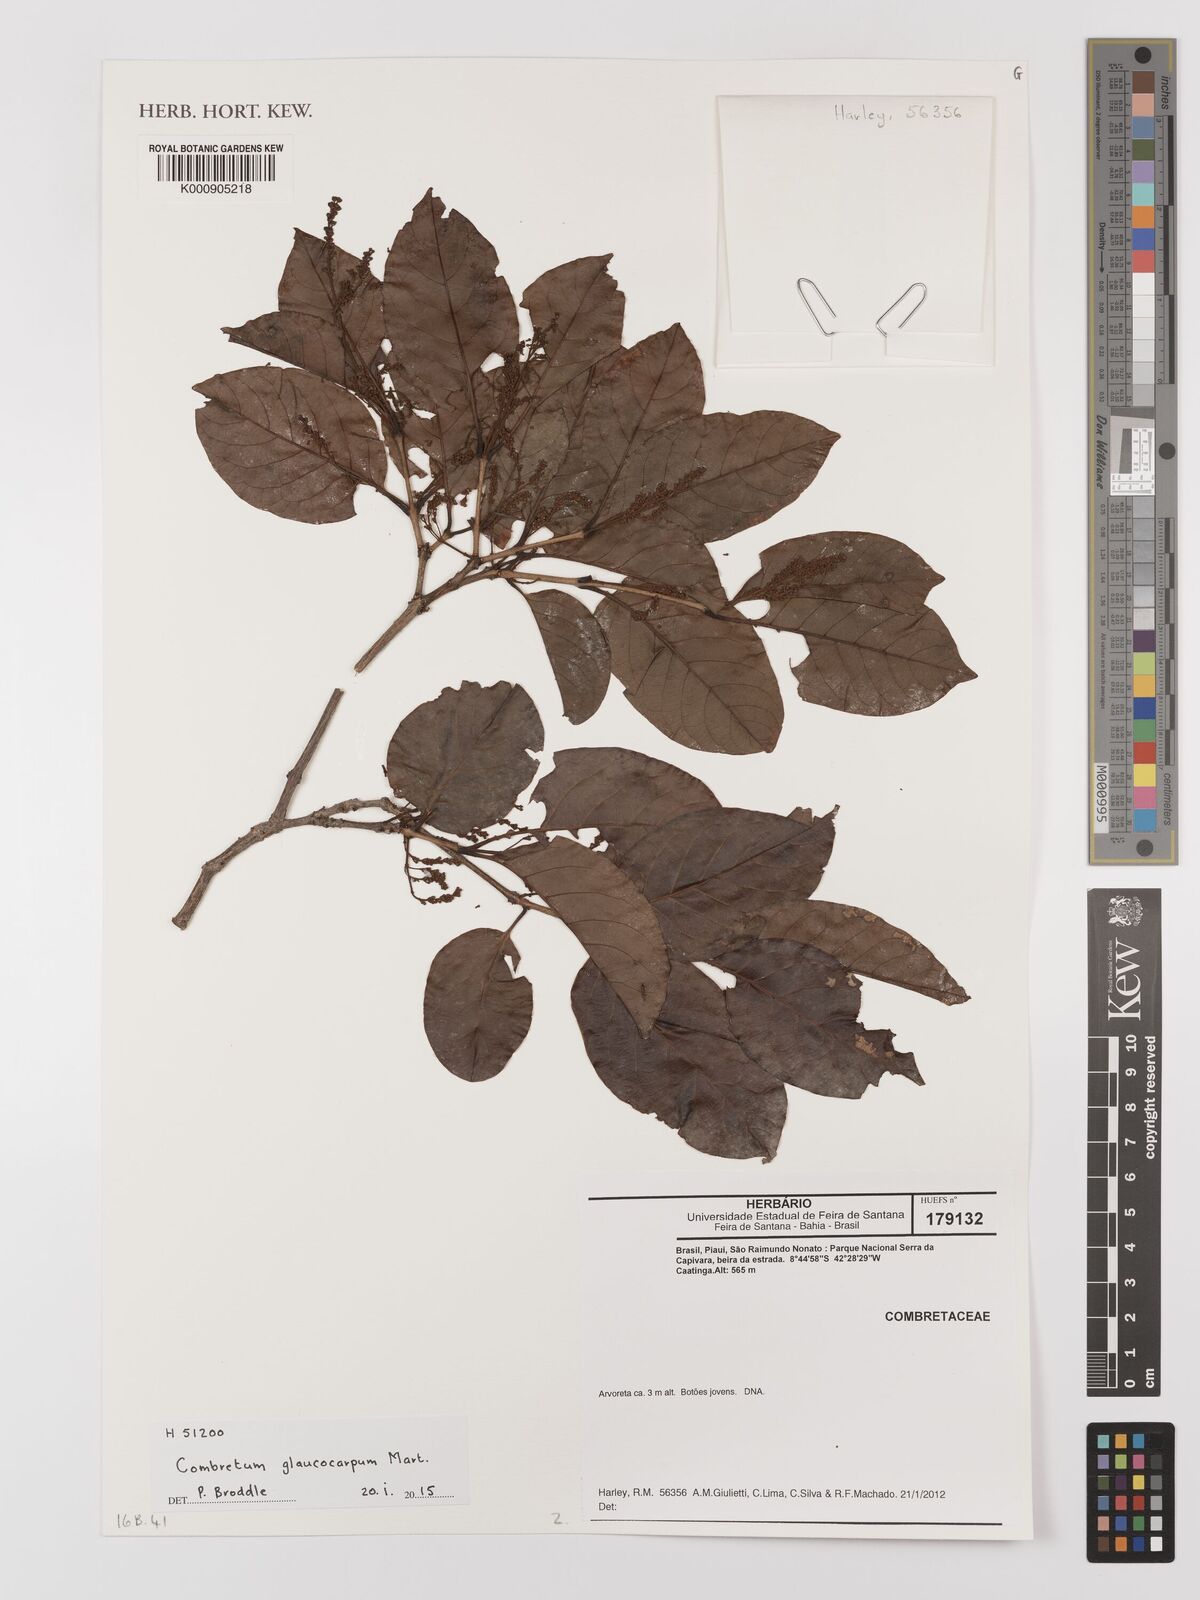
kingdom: Plantae
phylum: Tracheophyta
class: Magnoliopsida
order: Myrtales
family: Combretaceae
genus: Combretum
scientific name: Combretum glaucocarpum
